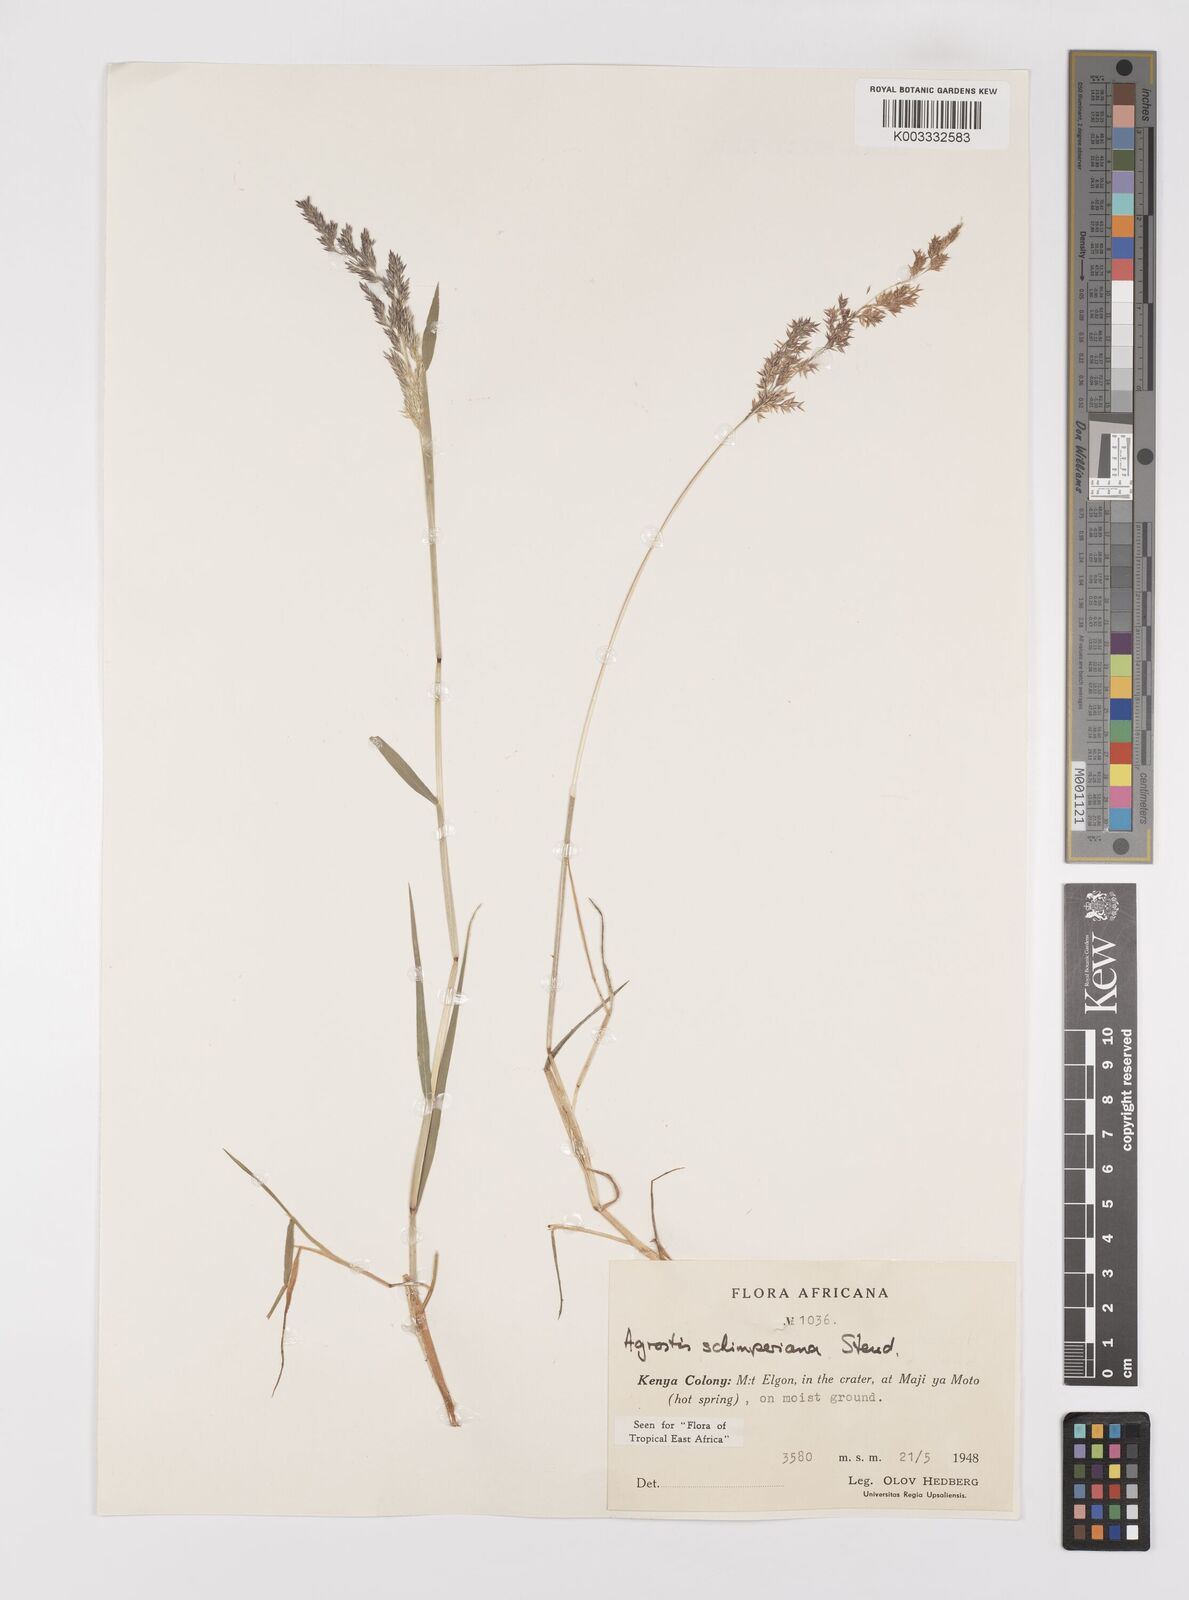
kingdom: Plantae
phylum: Tracheophyta
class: Liliopsida
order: Poales
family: Poaceae
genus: Polypogon
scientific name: Polypogon schimperianus
